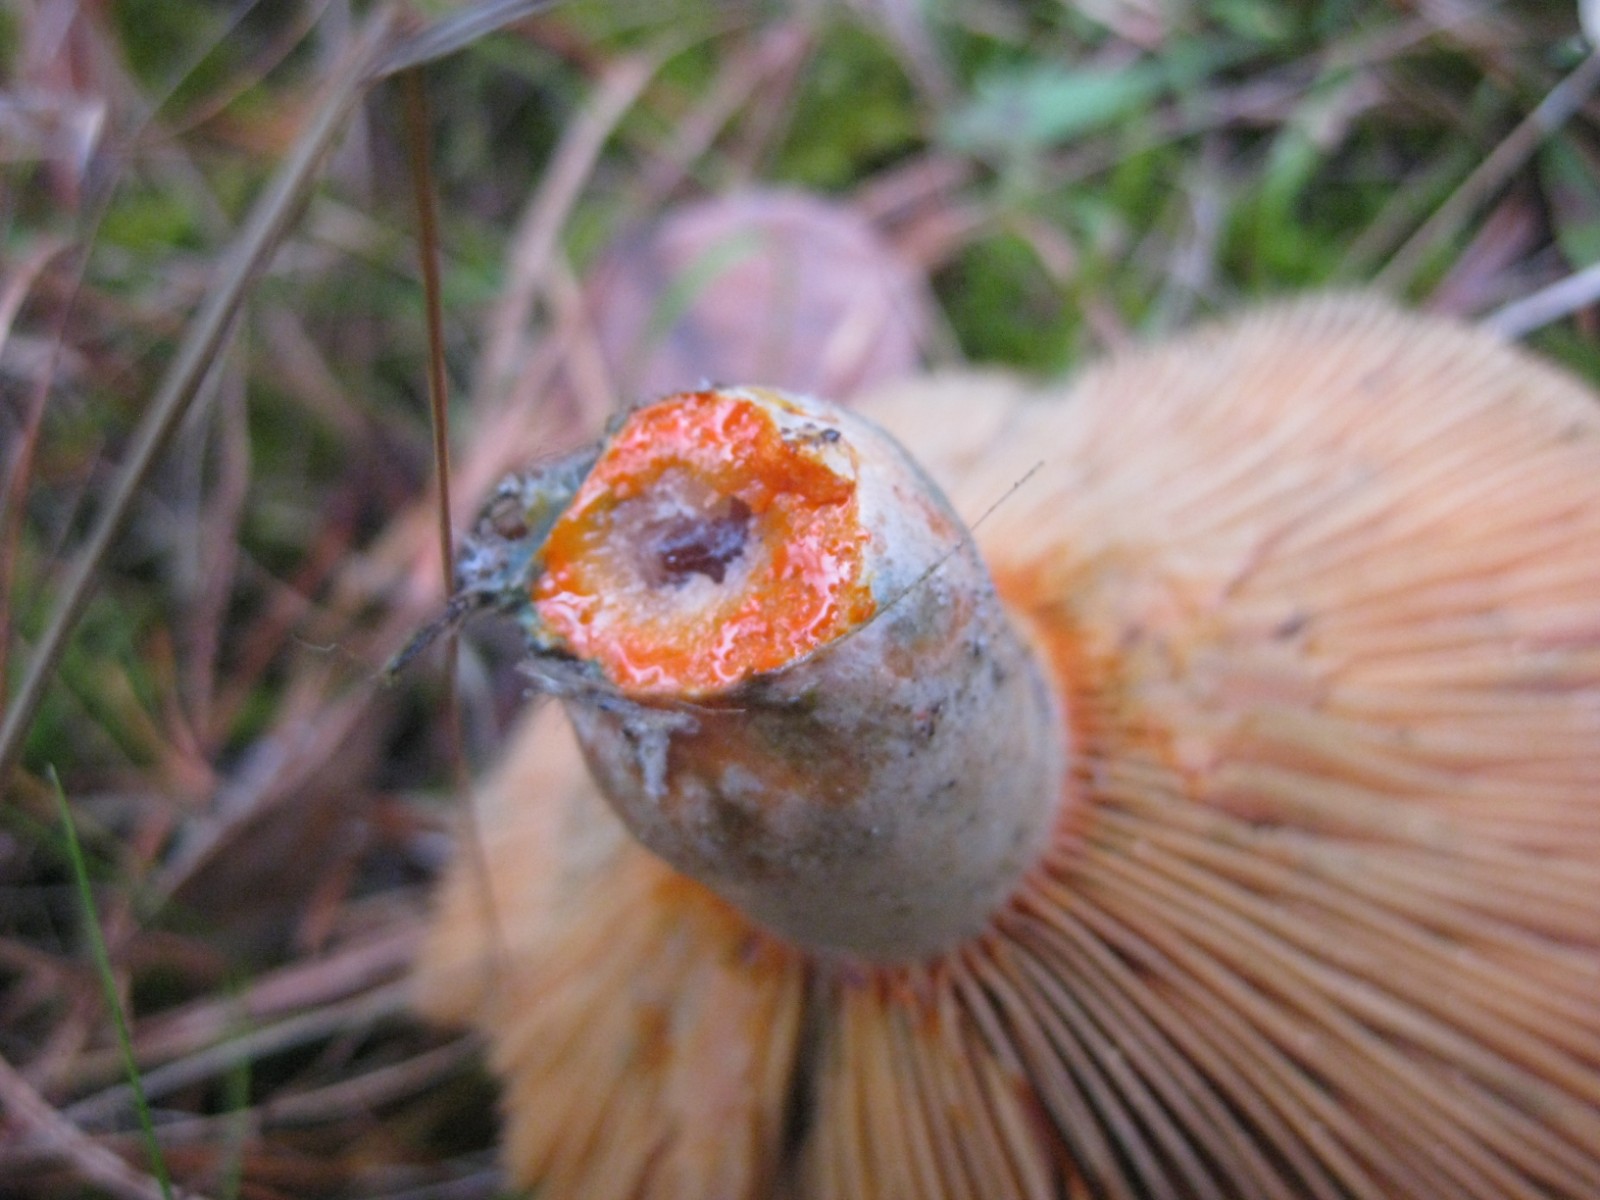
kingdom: Fungi
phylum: Basidiomycota
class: Agaricomycetes
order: Russulales
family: Russulaceae
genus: Lactarius
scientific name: Lactarius quieticolor
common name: tvefarvet mælkehat
